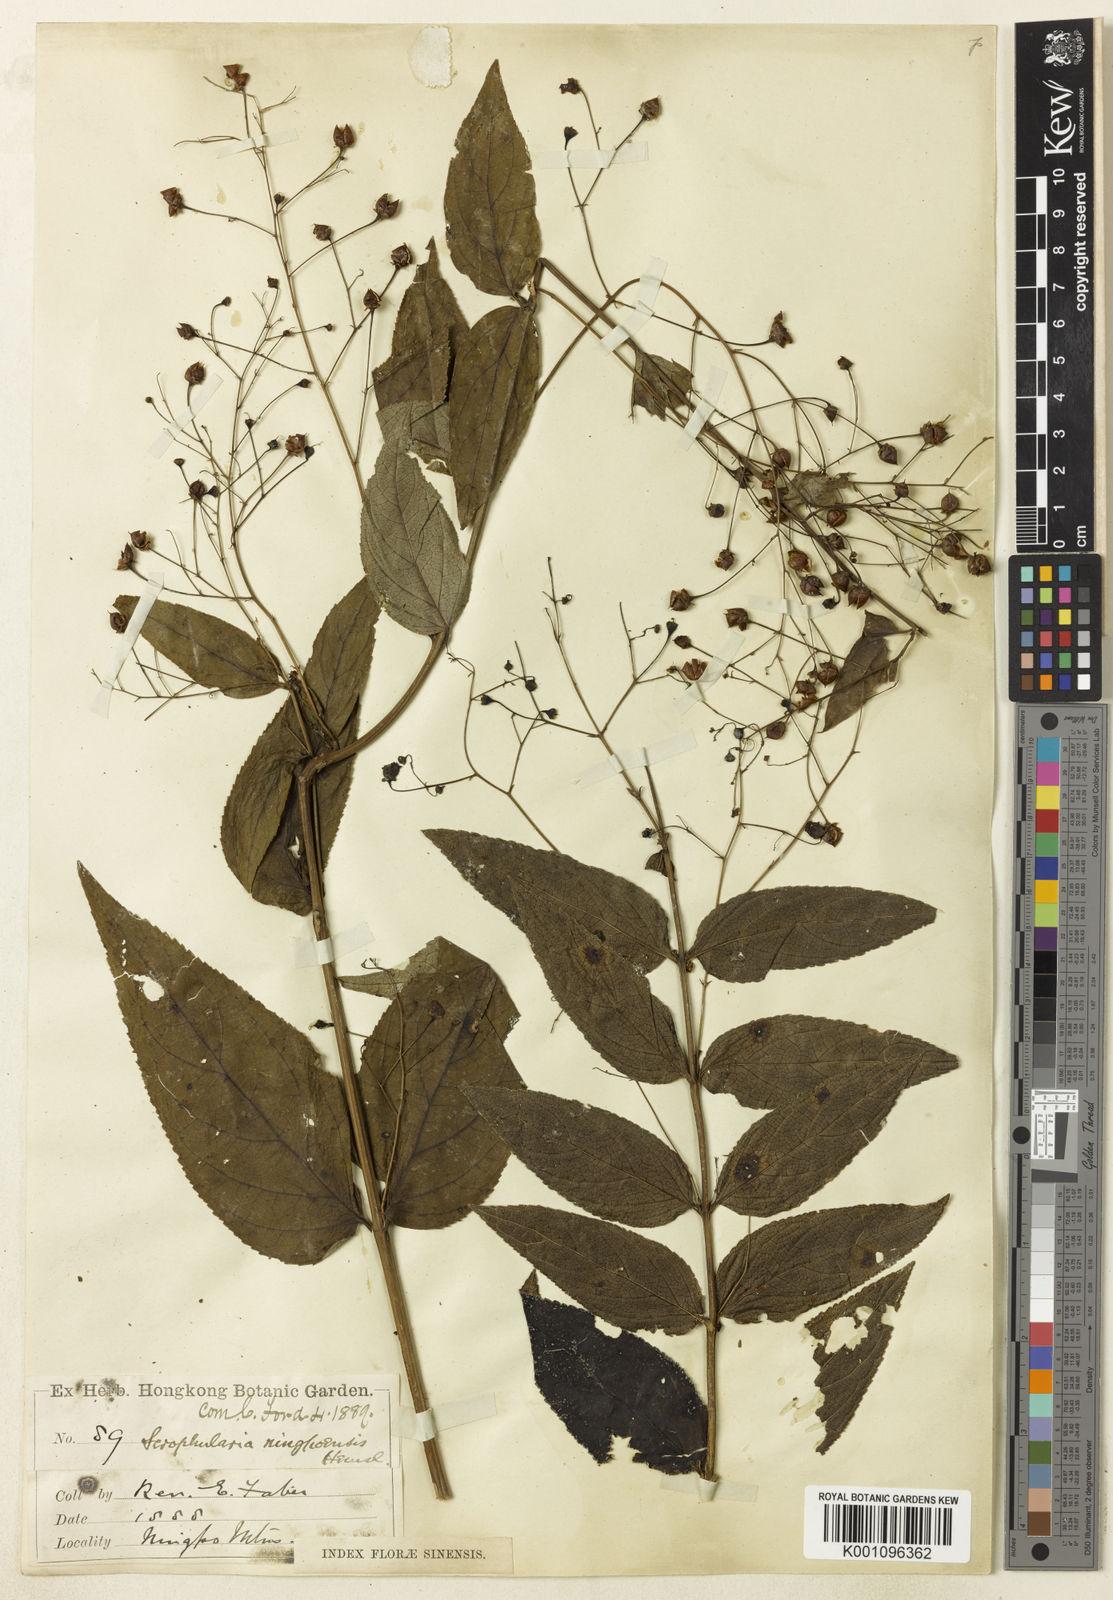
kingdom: Plantae
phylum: Tracheophyta
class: Magnoliopsida
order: Lamiales
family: Scrophulariaceae
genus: Scrophularia
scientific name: Scrophularia ningpoensis
